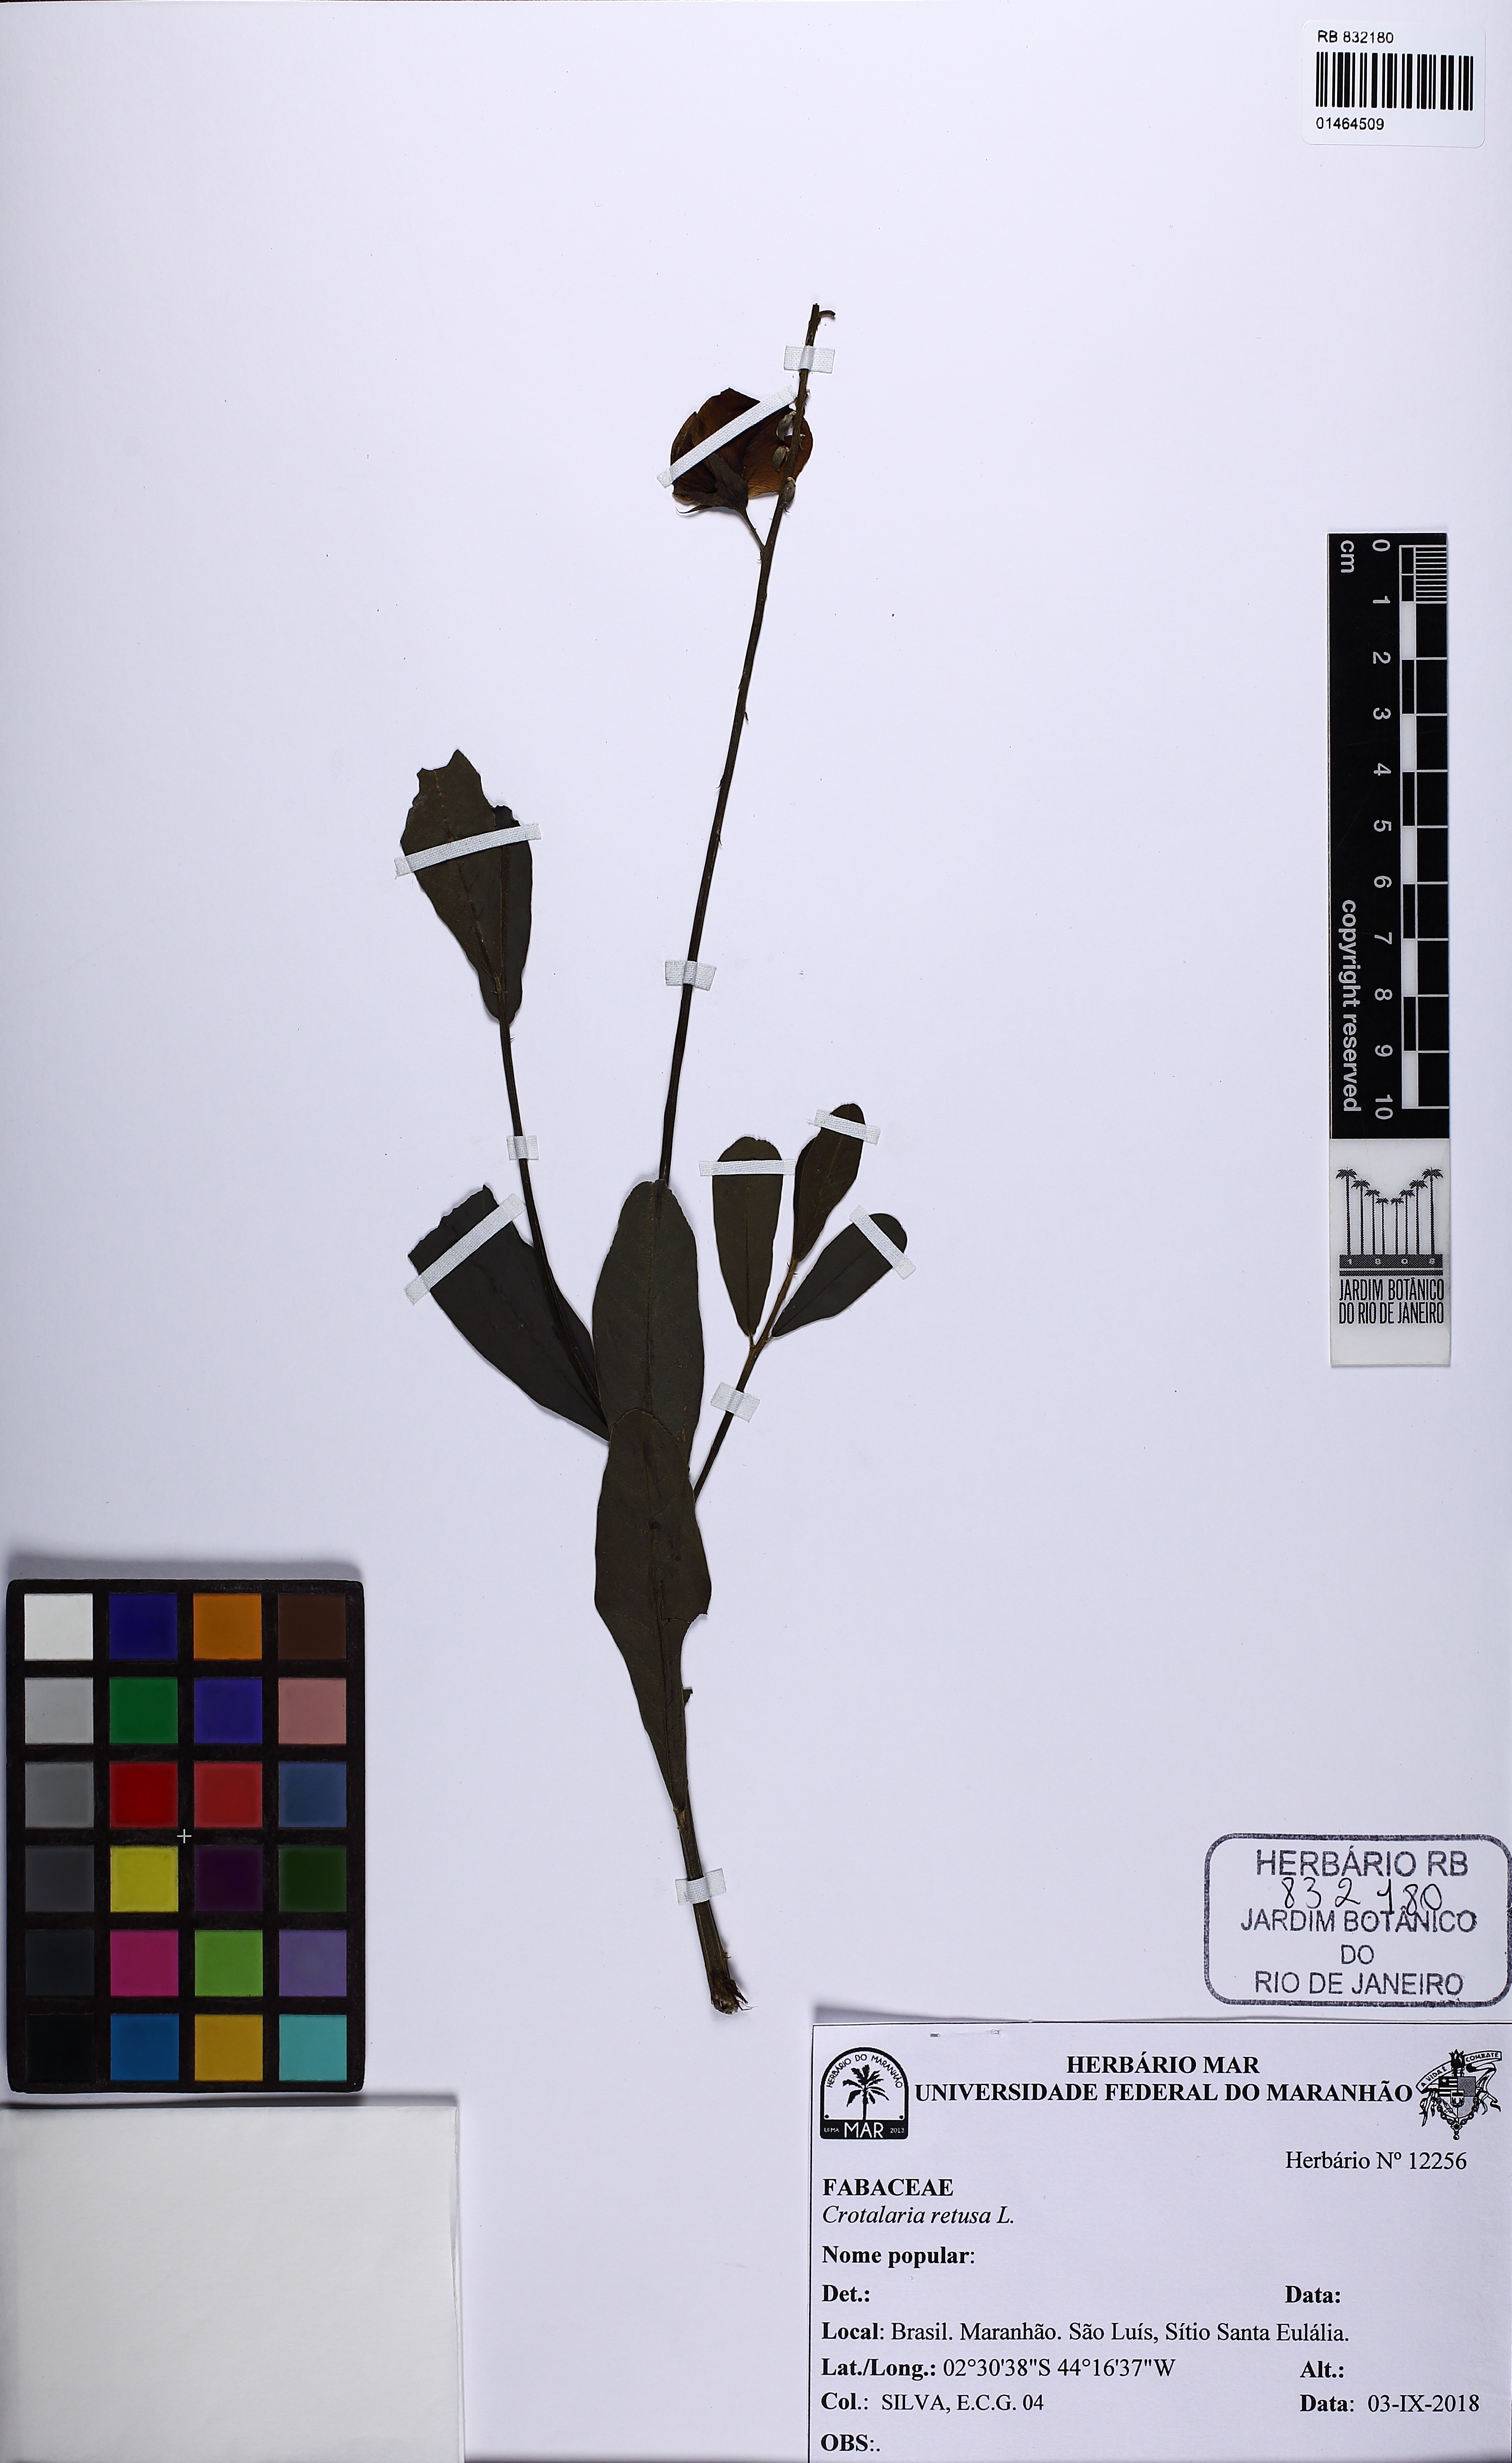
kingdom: Plantae
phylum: Tracheophyta
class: Magnoliopsida
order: Fabales
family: Fabaceae
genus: Crotalaria
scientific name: Crotalaria retusa
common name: Rattleweed
